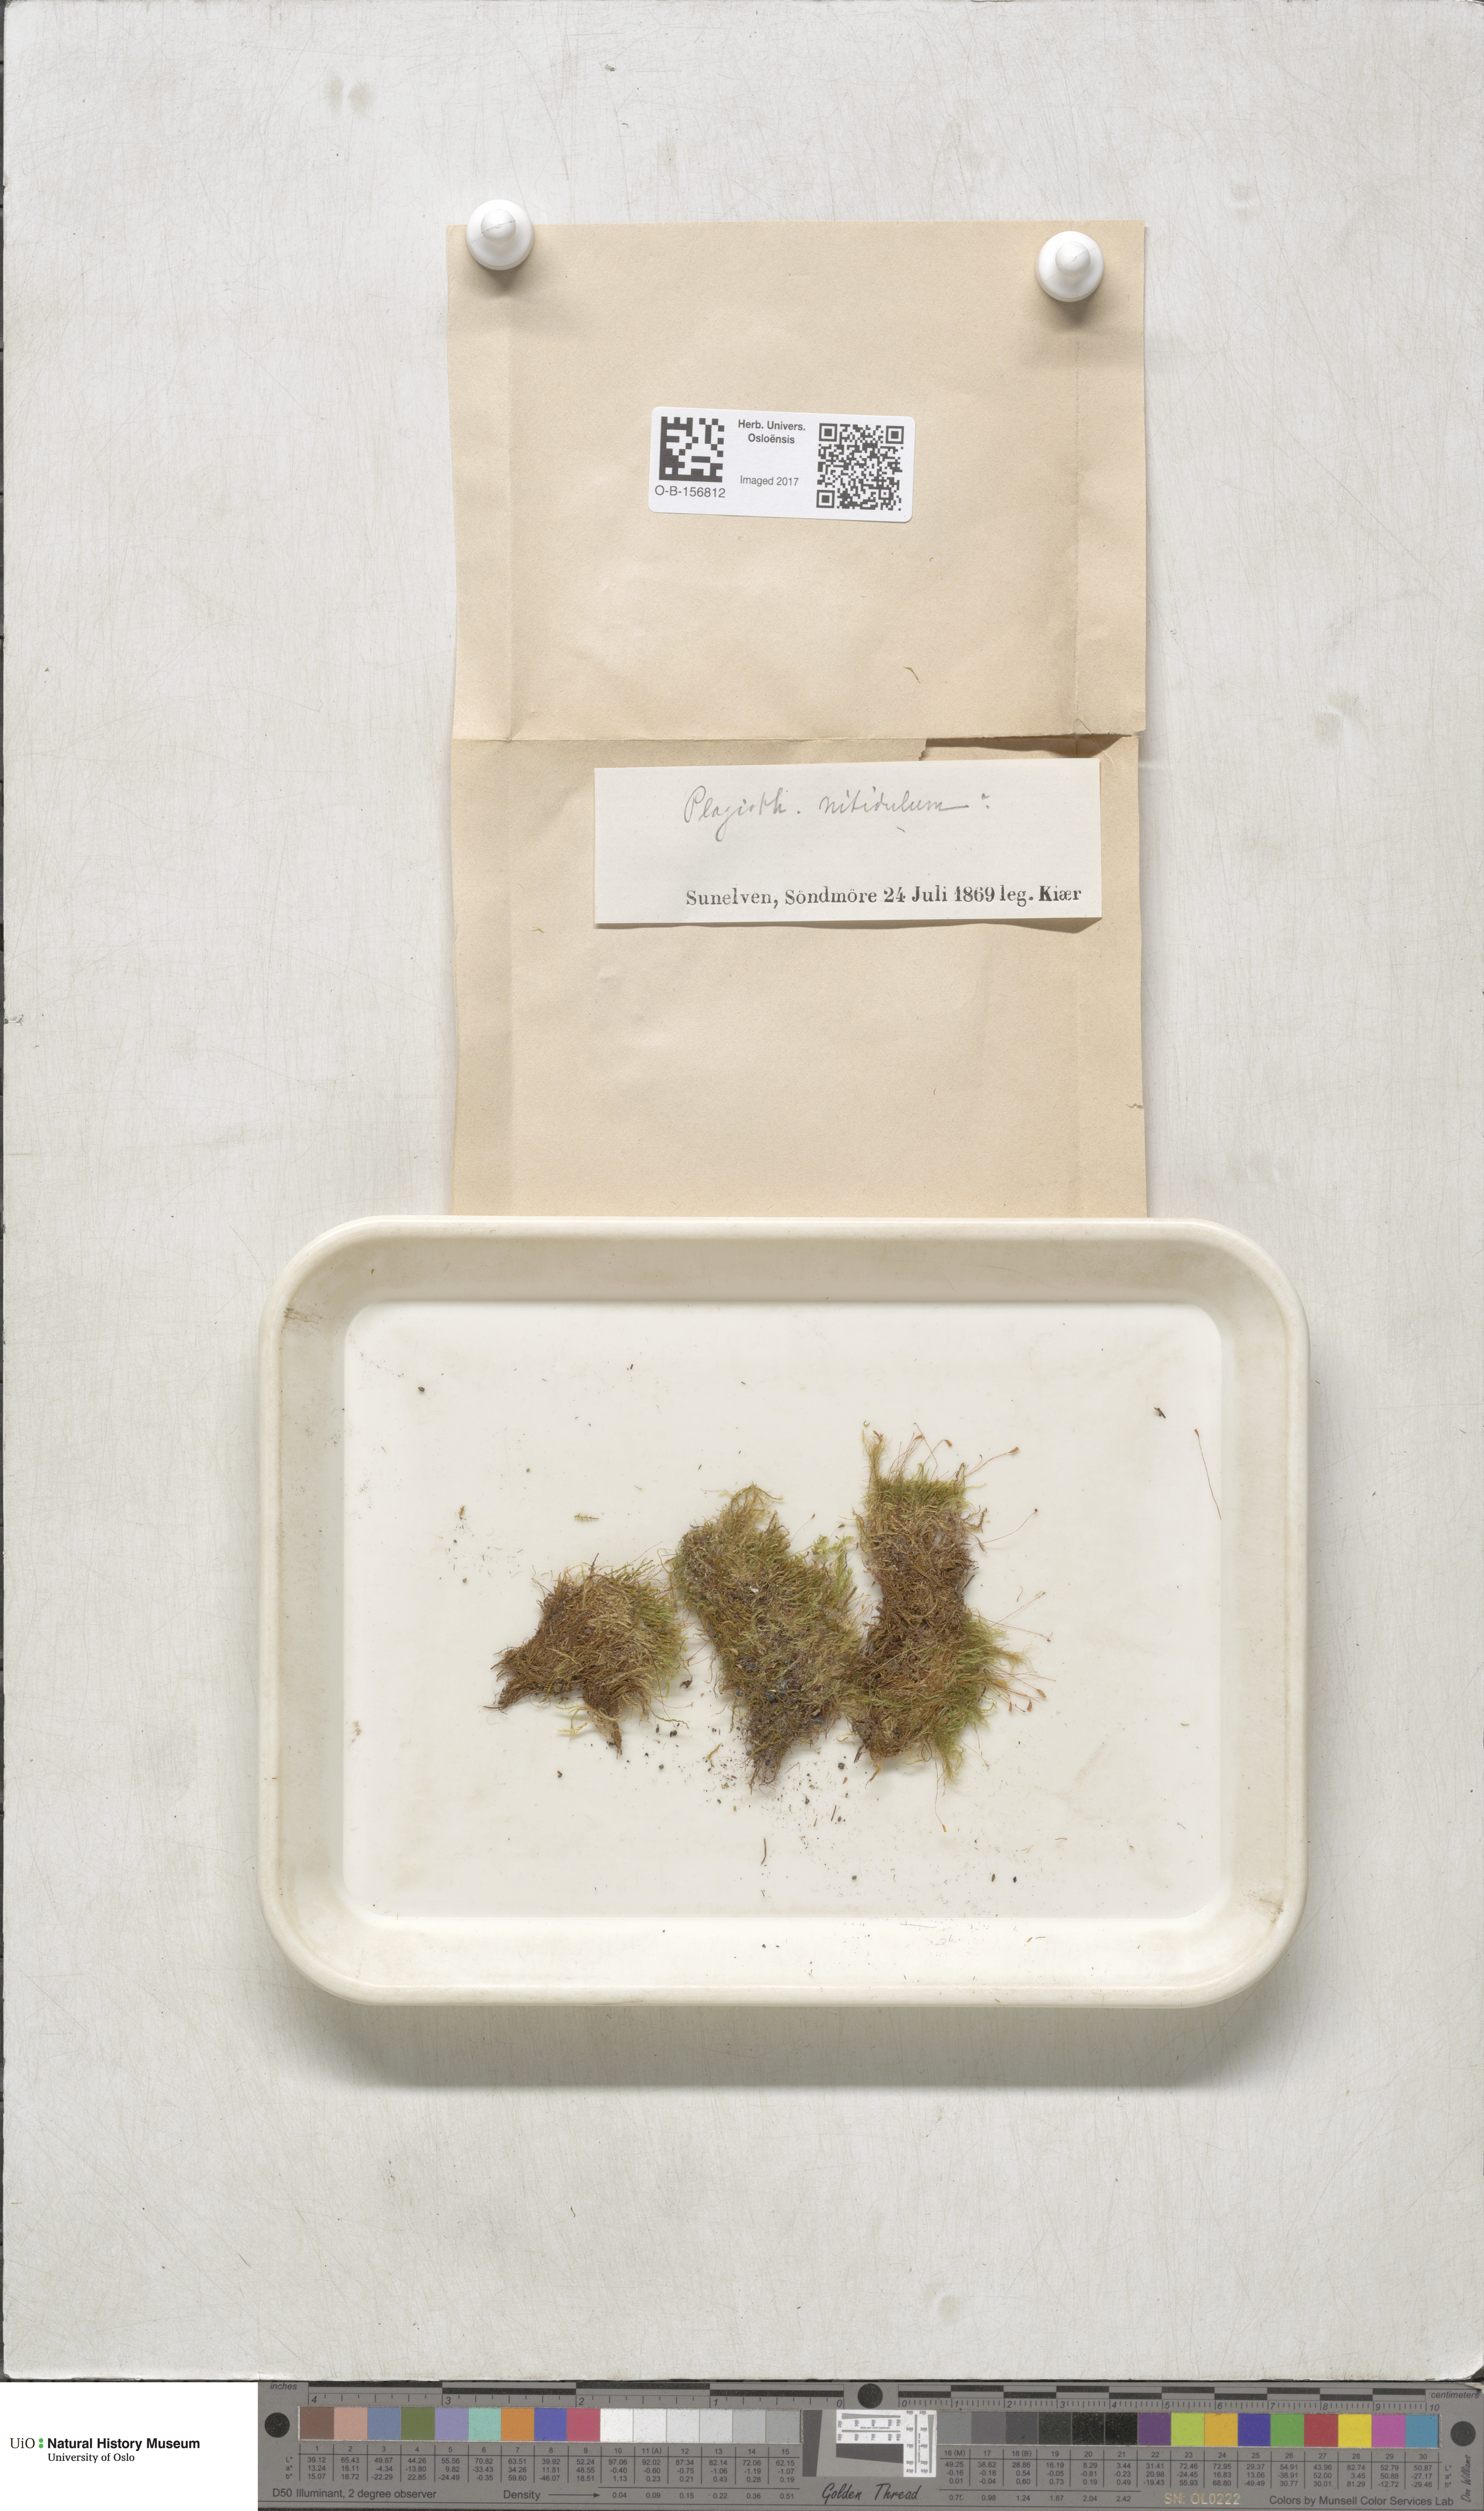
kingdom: Plantae
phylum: Bryophyta
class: Bryopsida
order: Hypnales
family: Plagiotheciaceae
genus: Plagiothecium
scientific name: Plagiothecium
